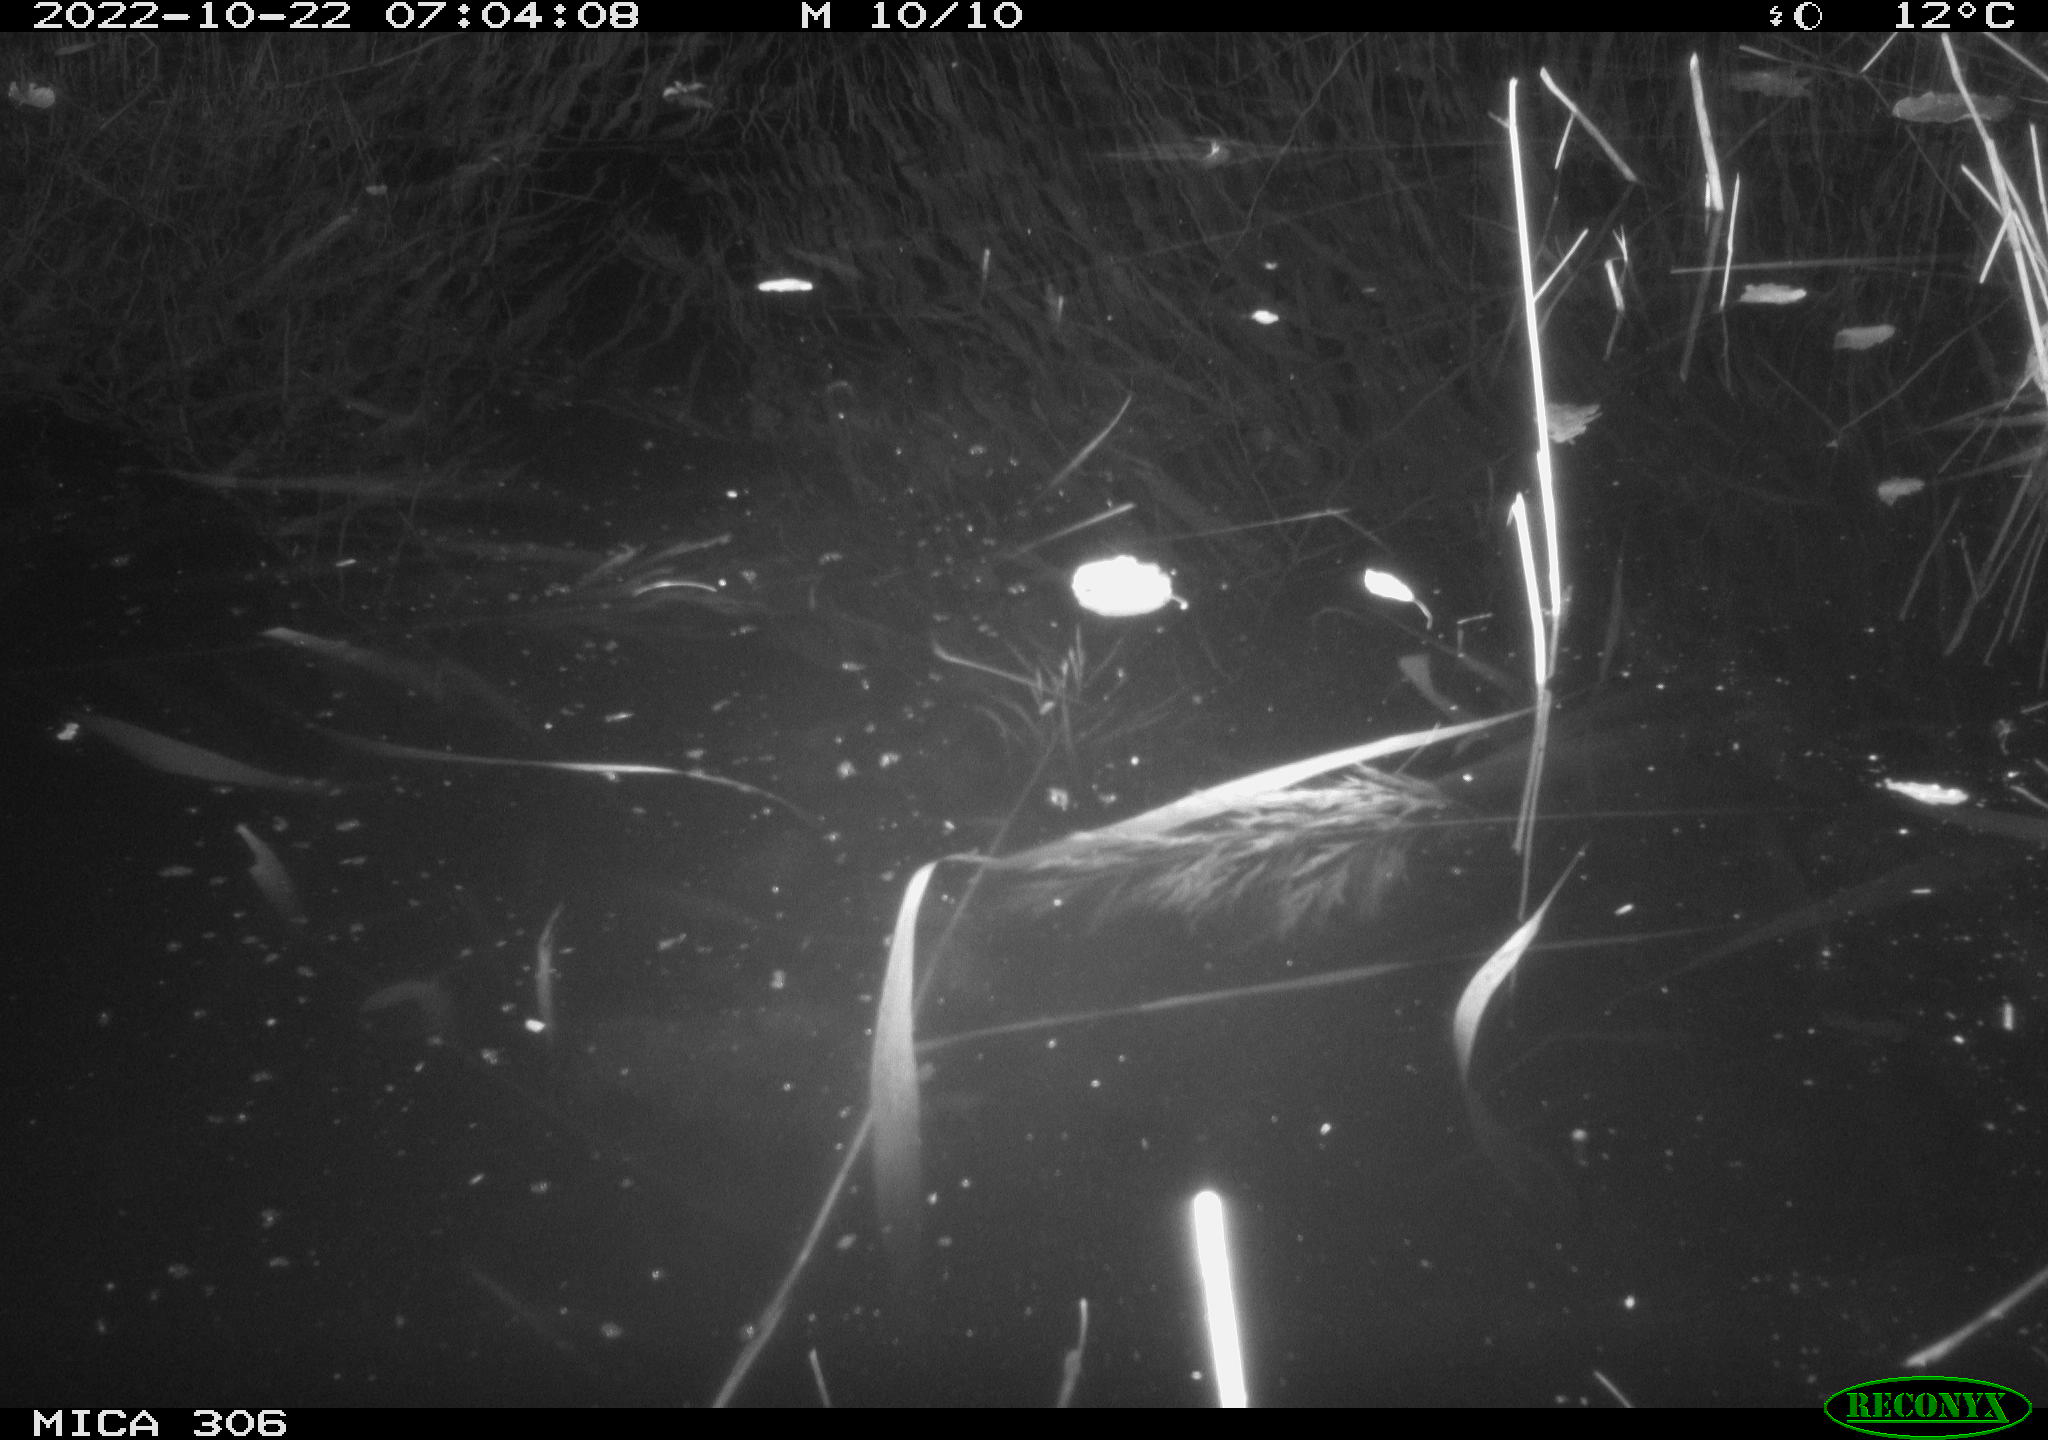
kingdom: Animalia
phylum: Chordata
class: Mammalia
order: Rodentia
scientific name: Rodentia
